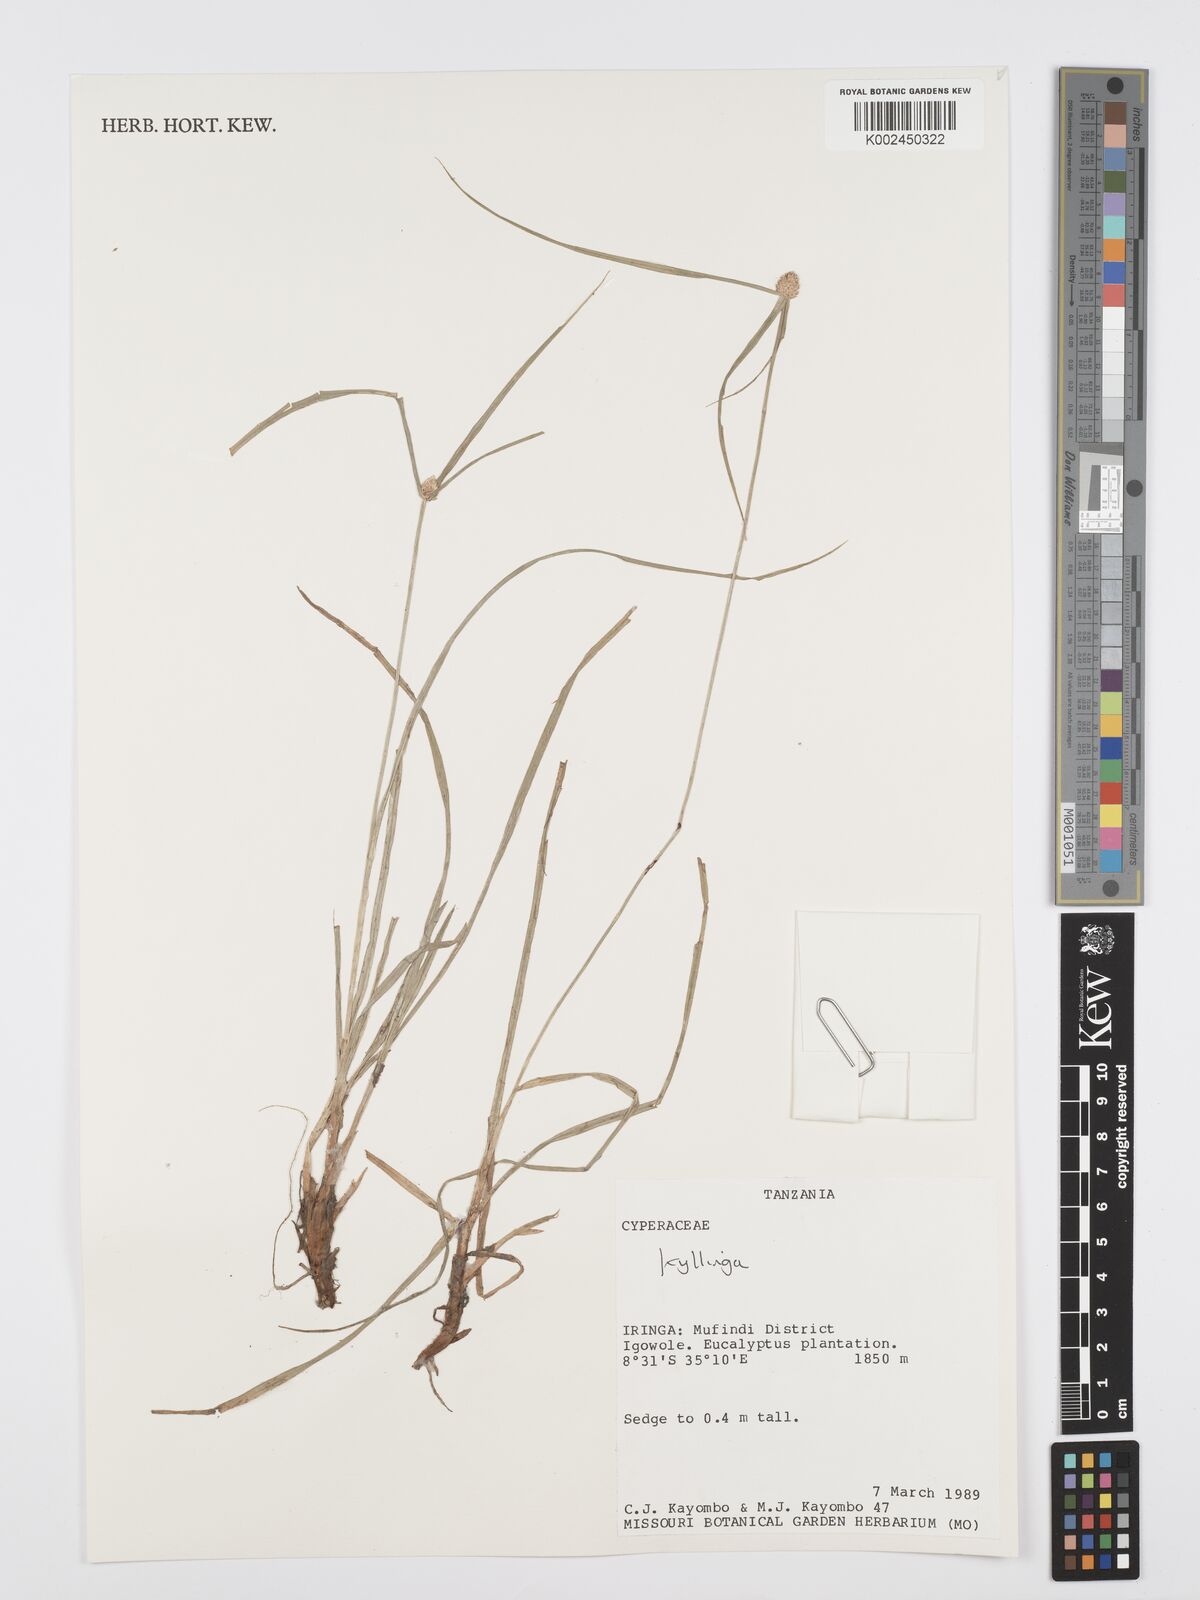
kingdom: Plantae
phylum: Tracheophyta
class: Liliopsida
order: Poales
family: Cyperaceae
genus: Cyperus
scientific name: Cyperus
